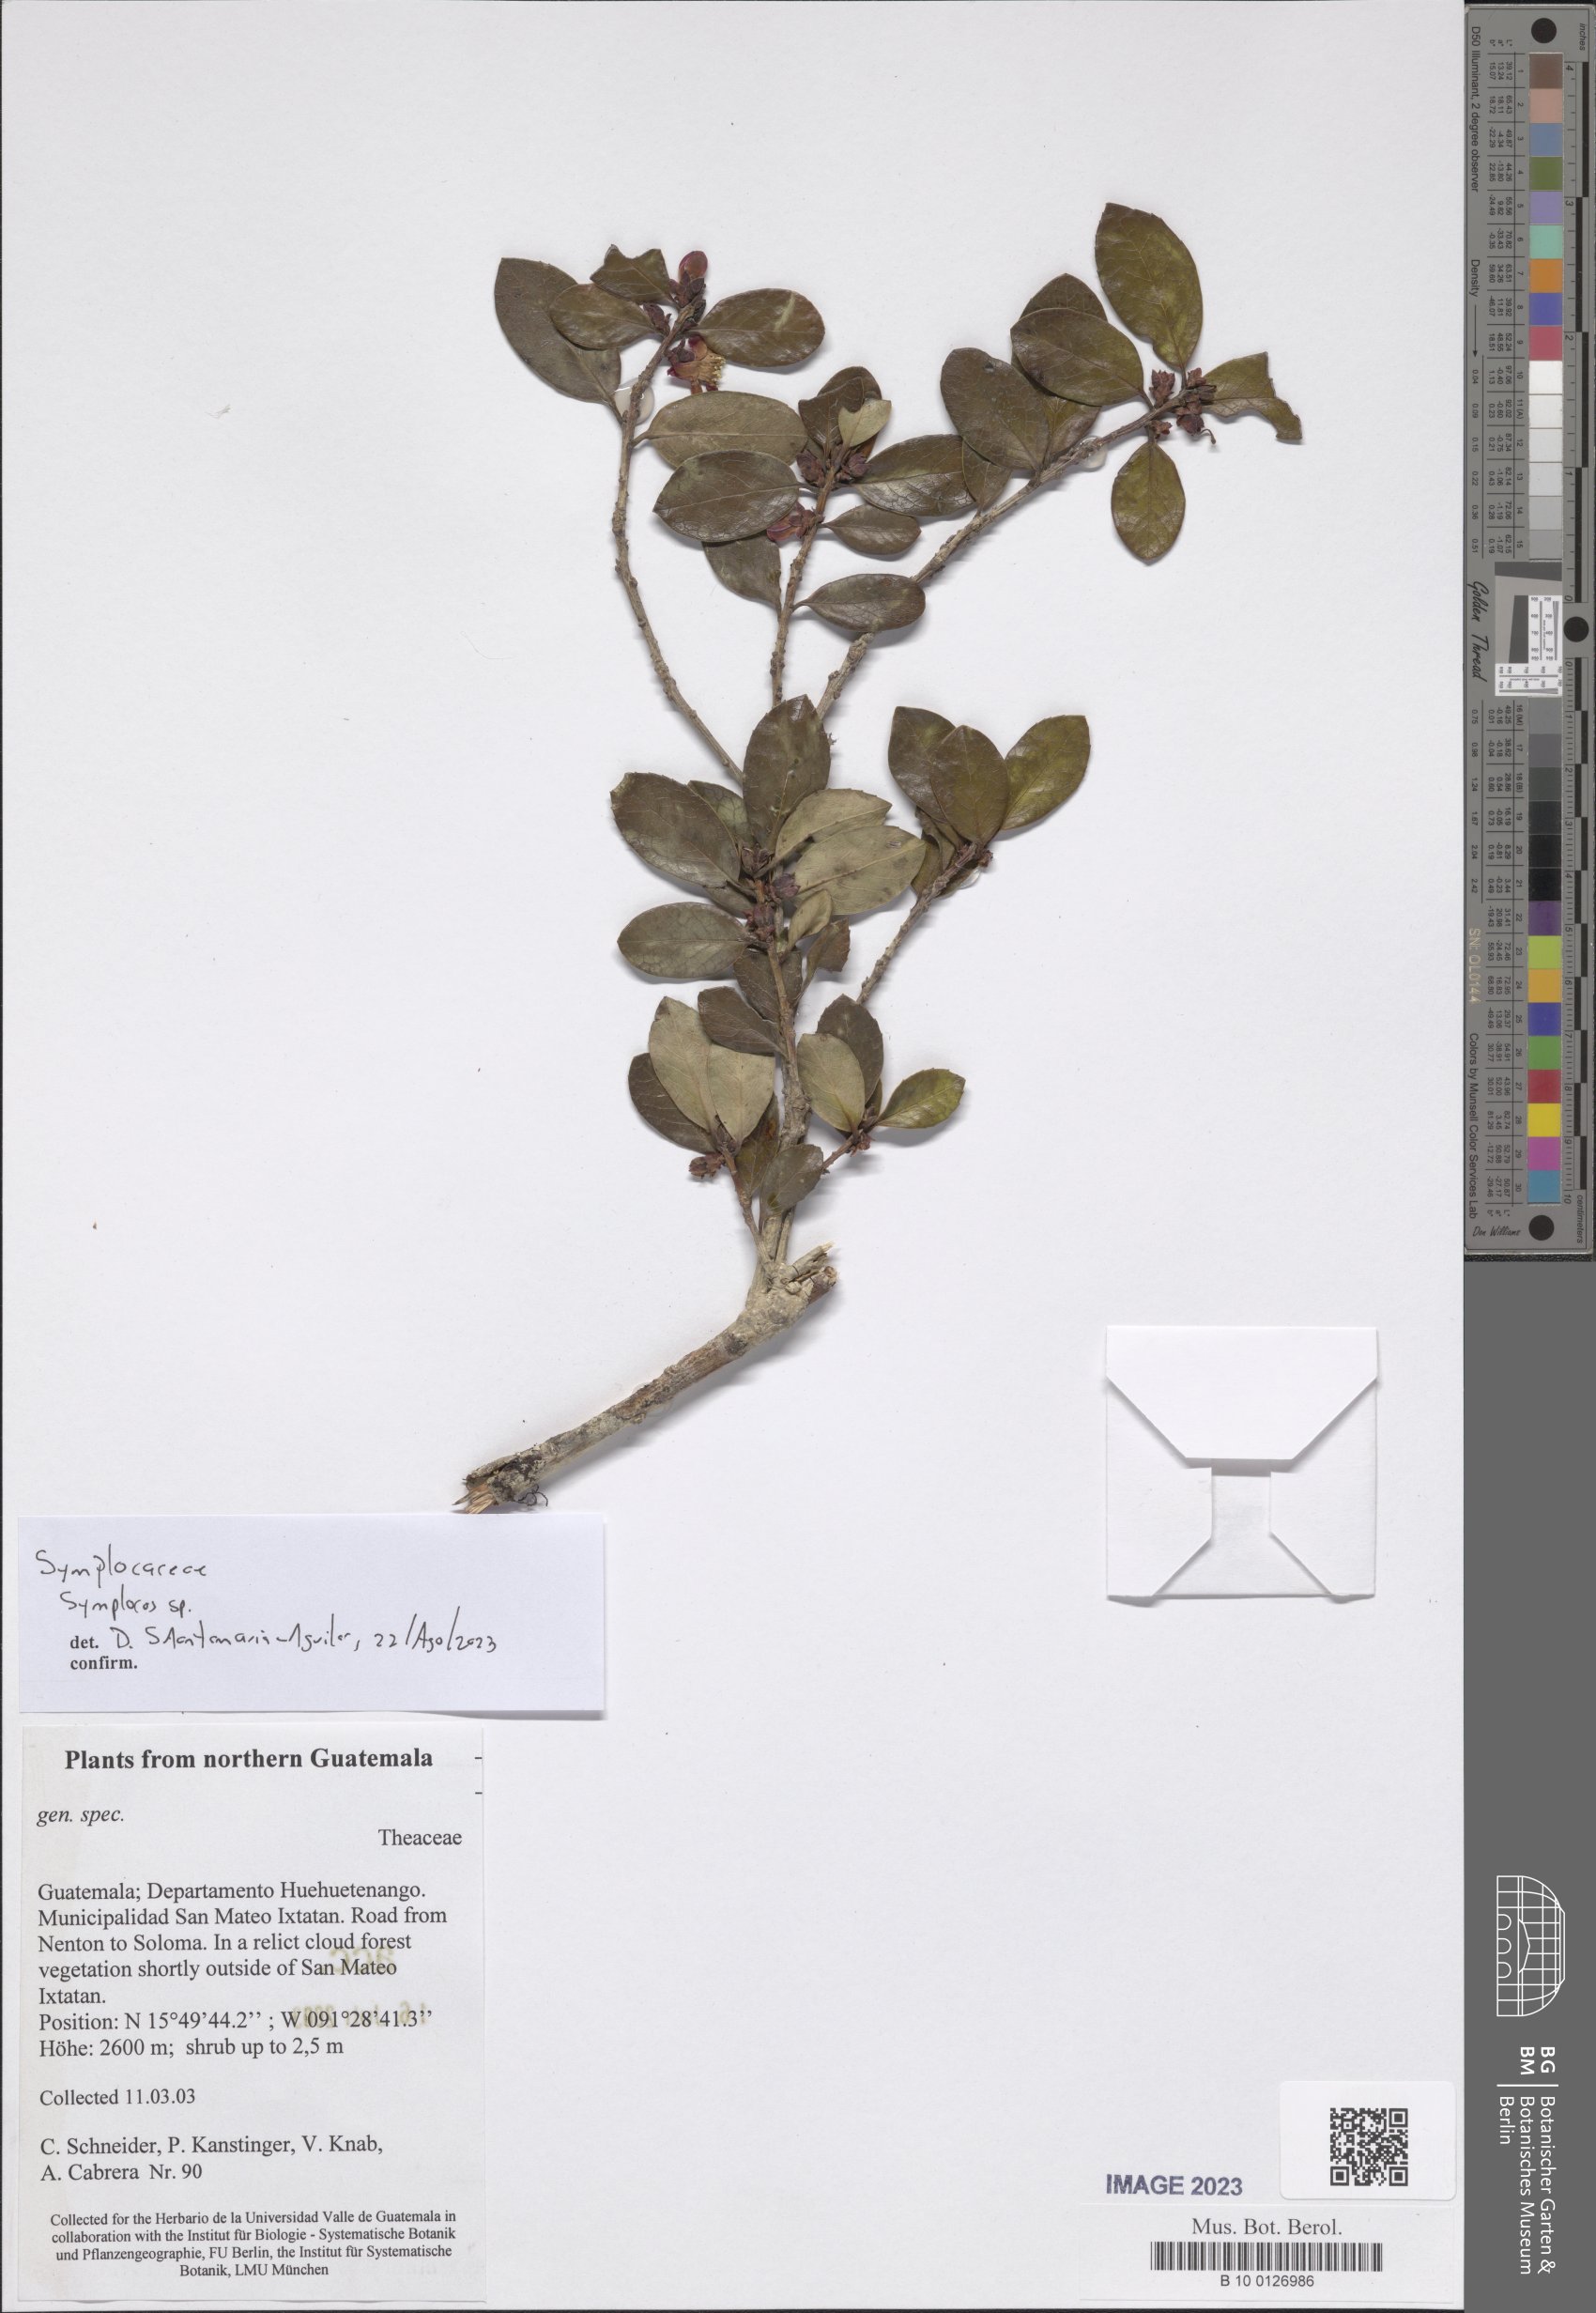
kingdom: Plantae
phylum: Tracheophyta
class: Magnoliopsida
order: Ericales
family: Symplocaceae
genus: Symplocos
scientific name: Symplocos
